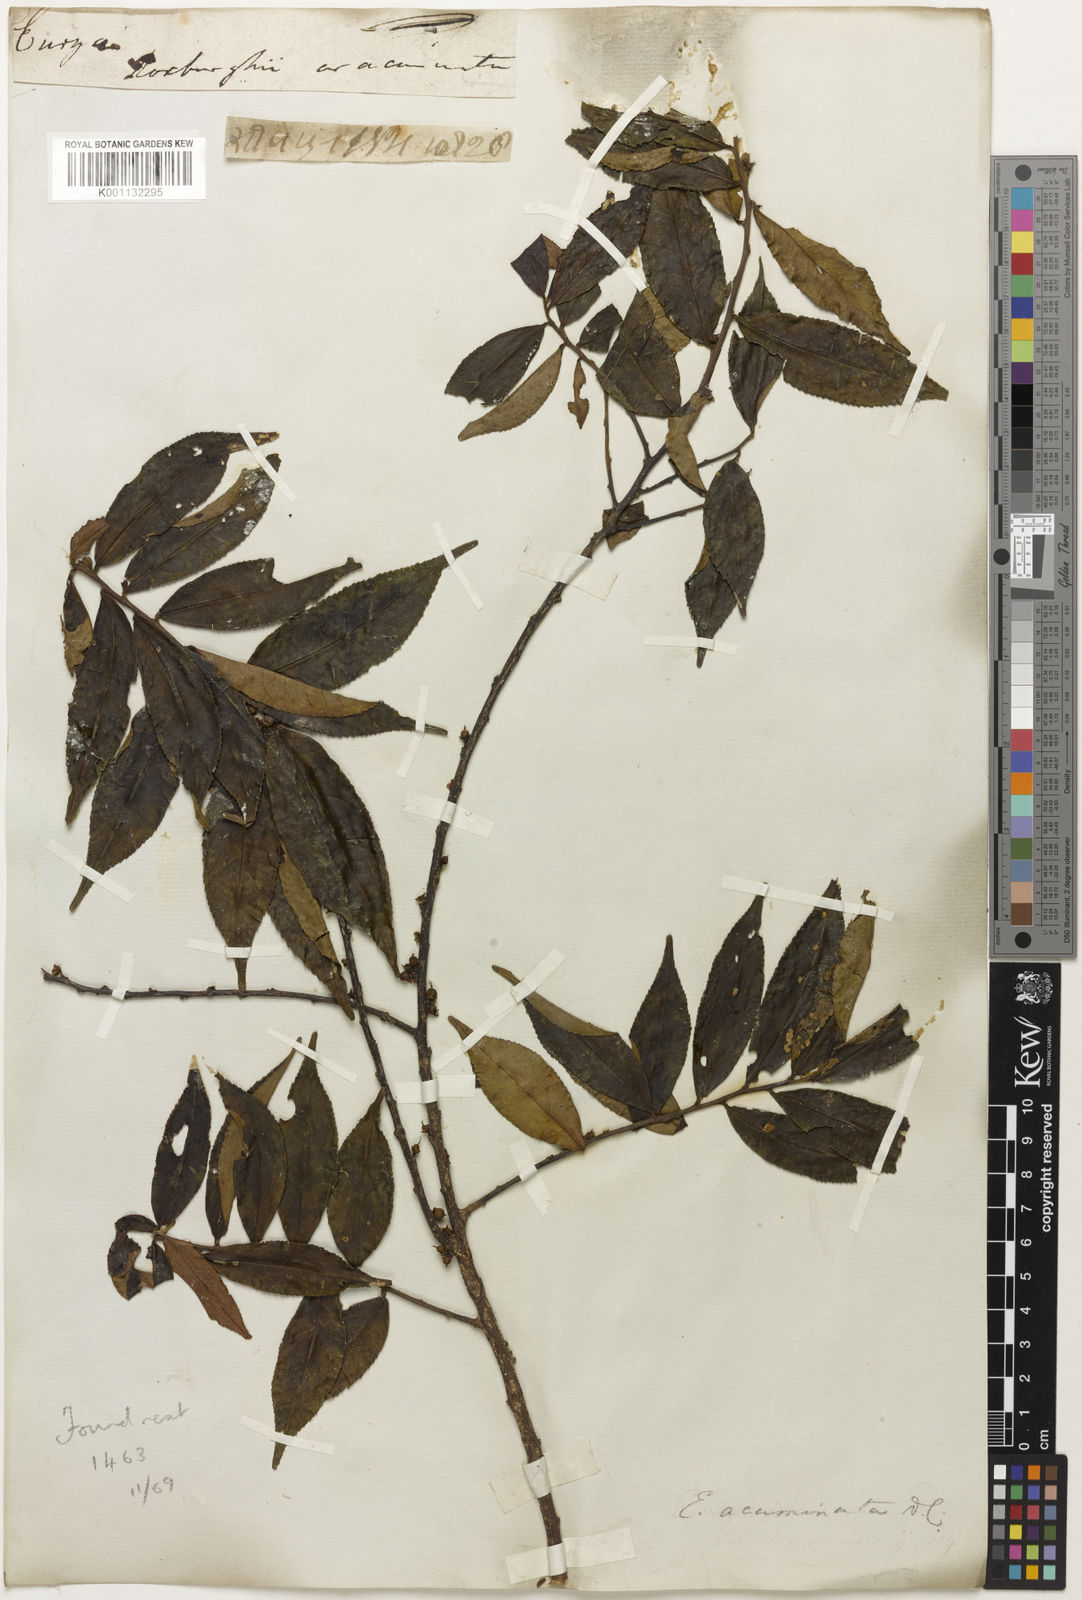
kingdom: Plantae
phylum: Tracheophyta
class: Magnoliopsida
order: Ericales
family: Pentaphylacaceae
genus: Eurya
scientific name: Eurya
